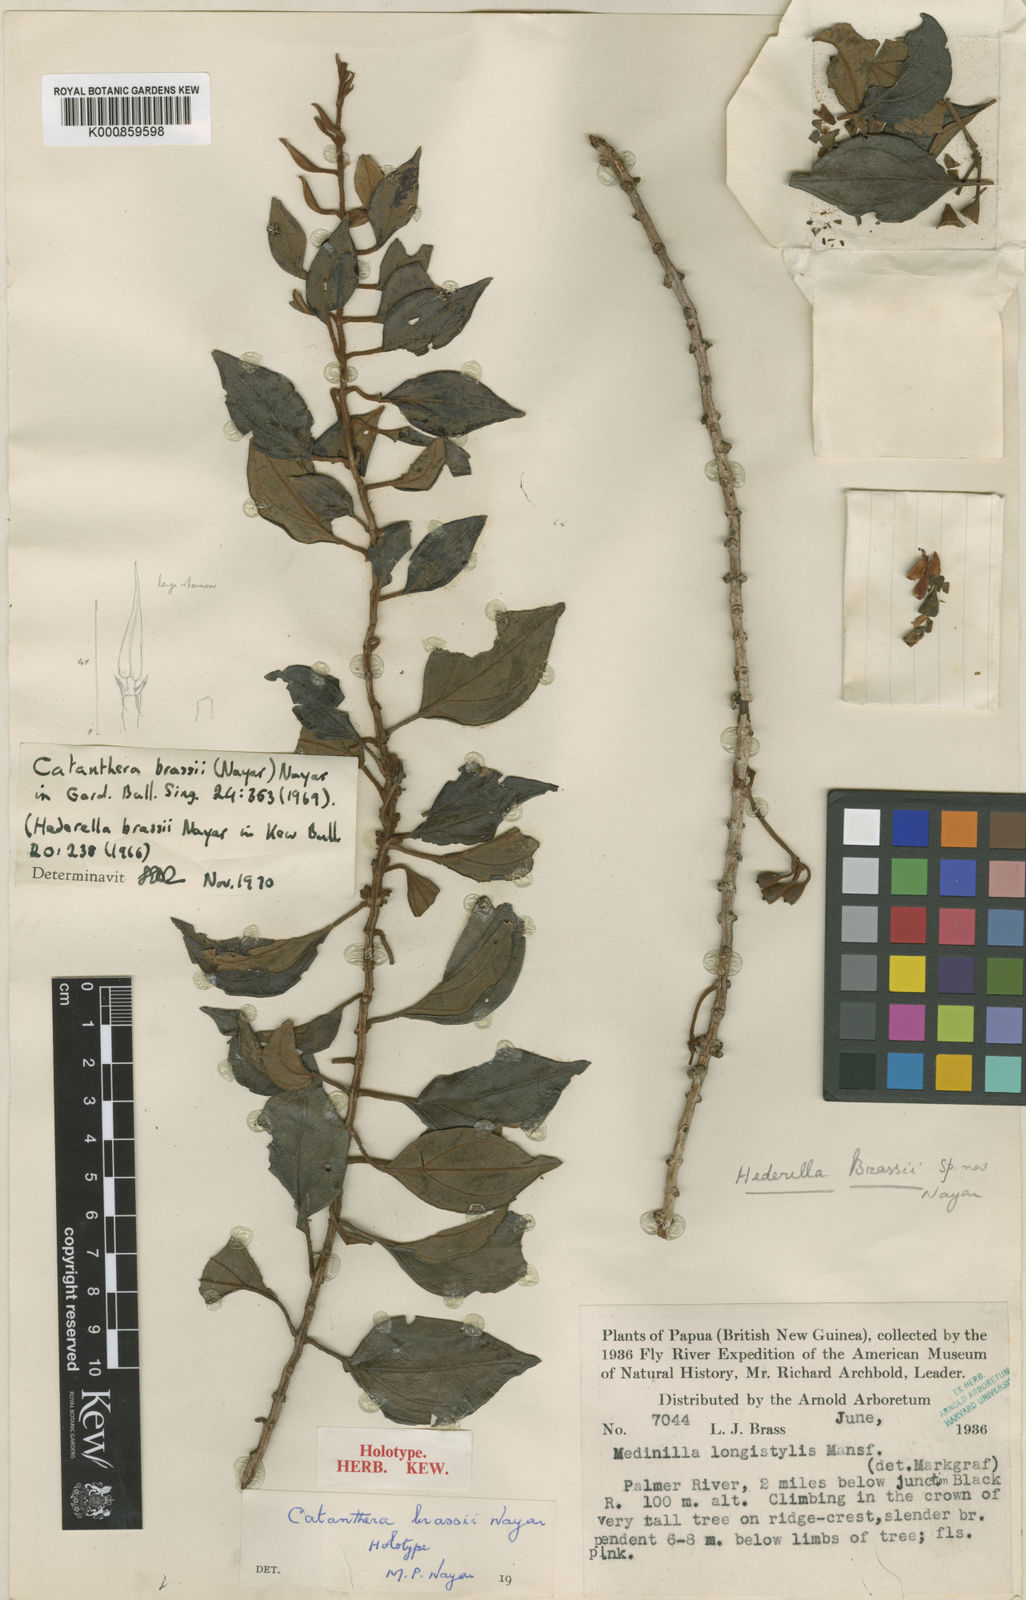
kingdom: Plantae
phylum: Tracheophyta
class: Magnoliopsida
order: Myrtales
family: Melastomataceae
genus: Catanthera
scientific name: Catanthera brassii
